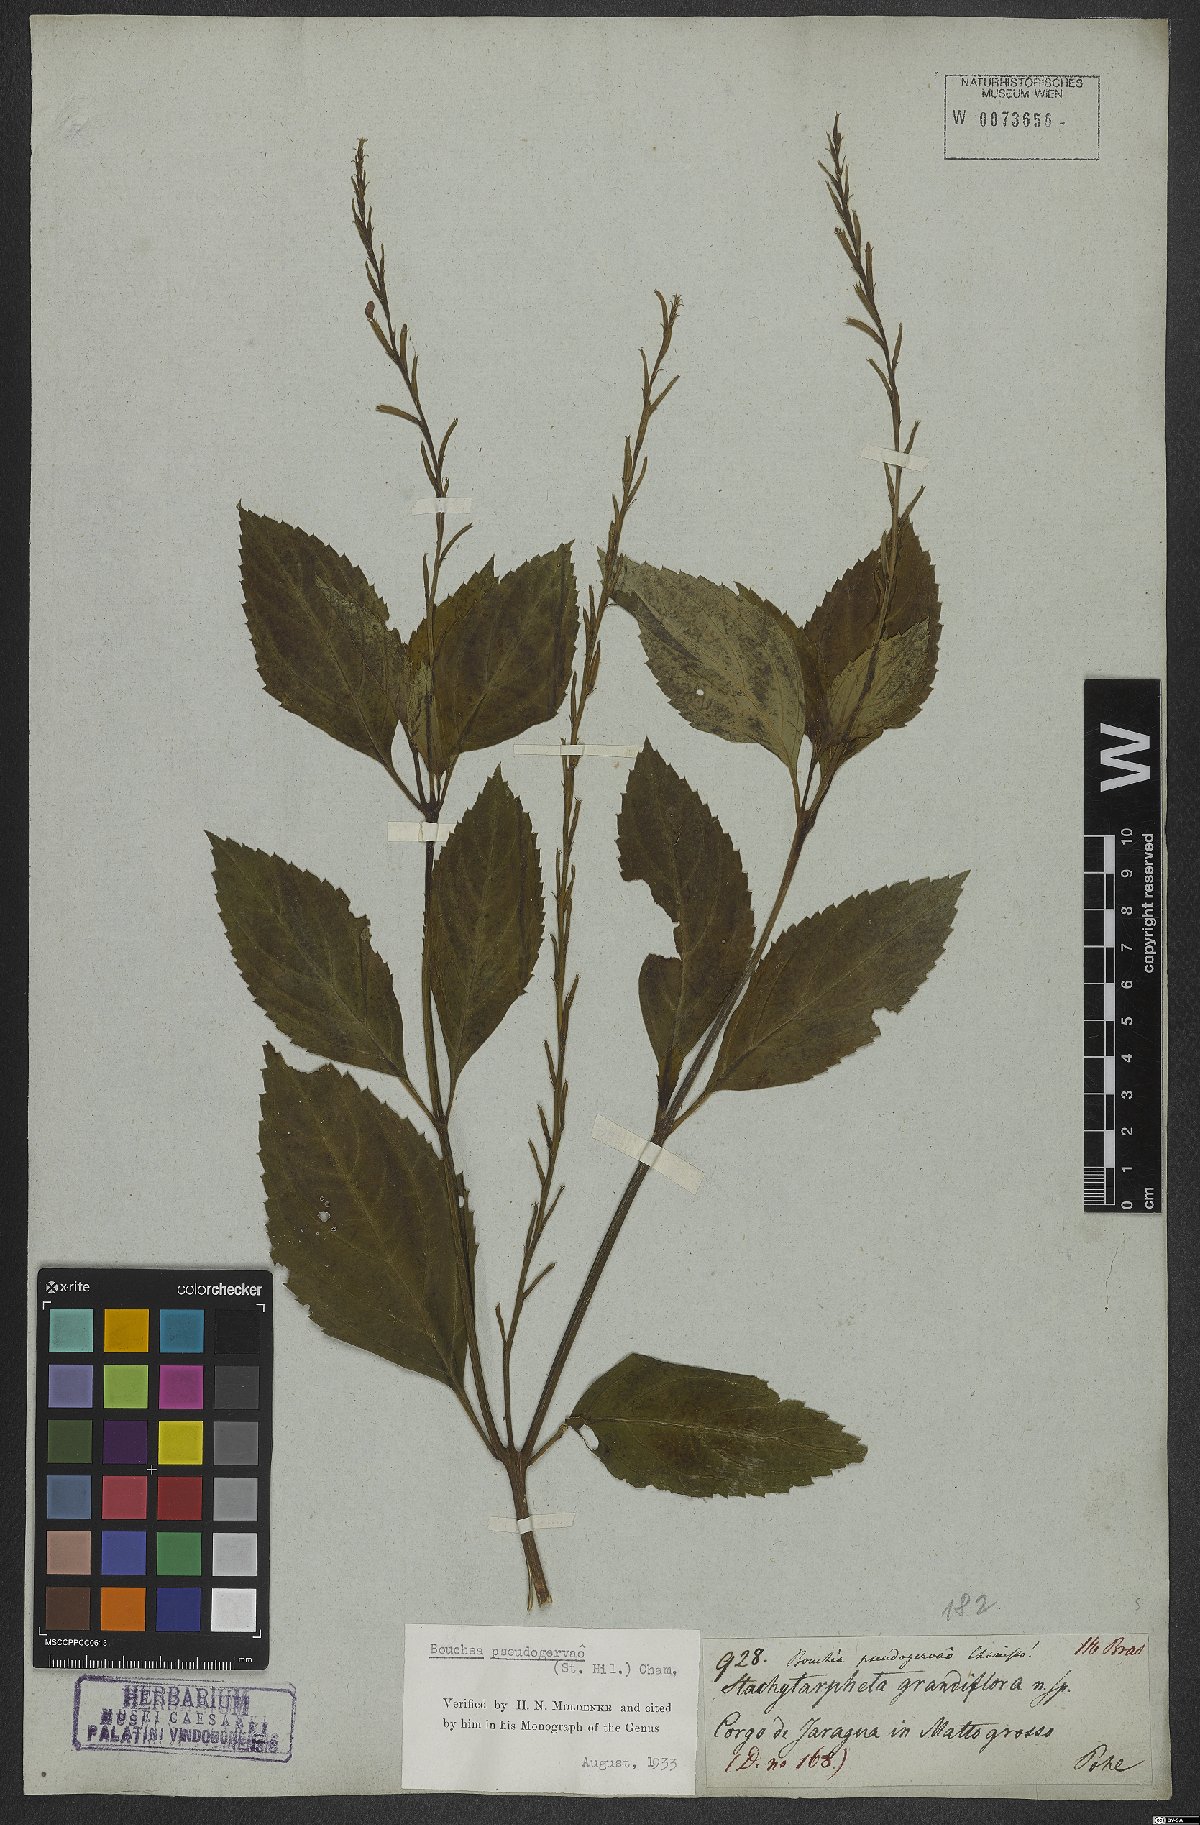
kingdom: Plantae
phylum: Tracheophyta
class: Magnoliopsida
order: Lamiales
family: Verbenaceae
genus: Bouchea
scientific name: Bouchea pseudogervao
